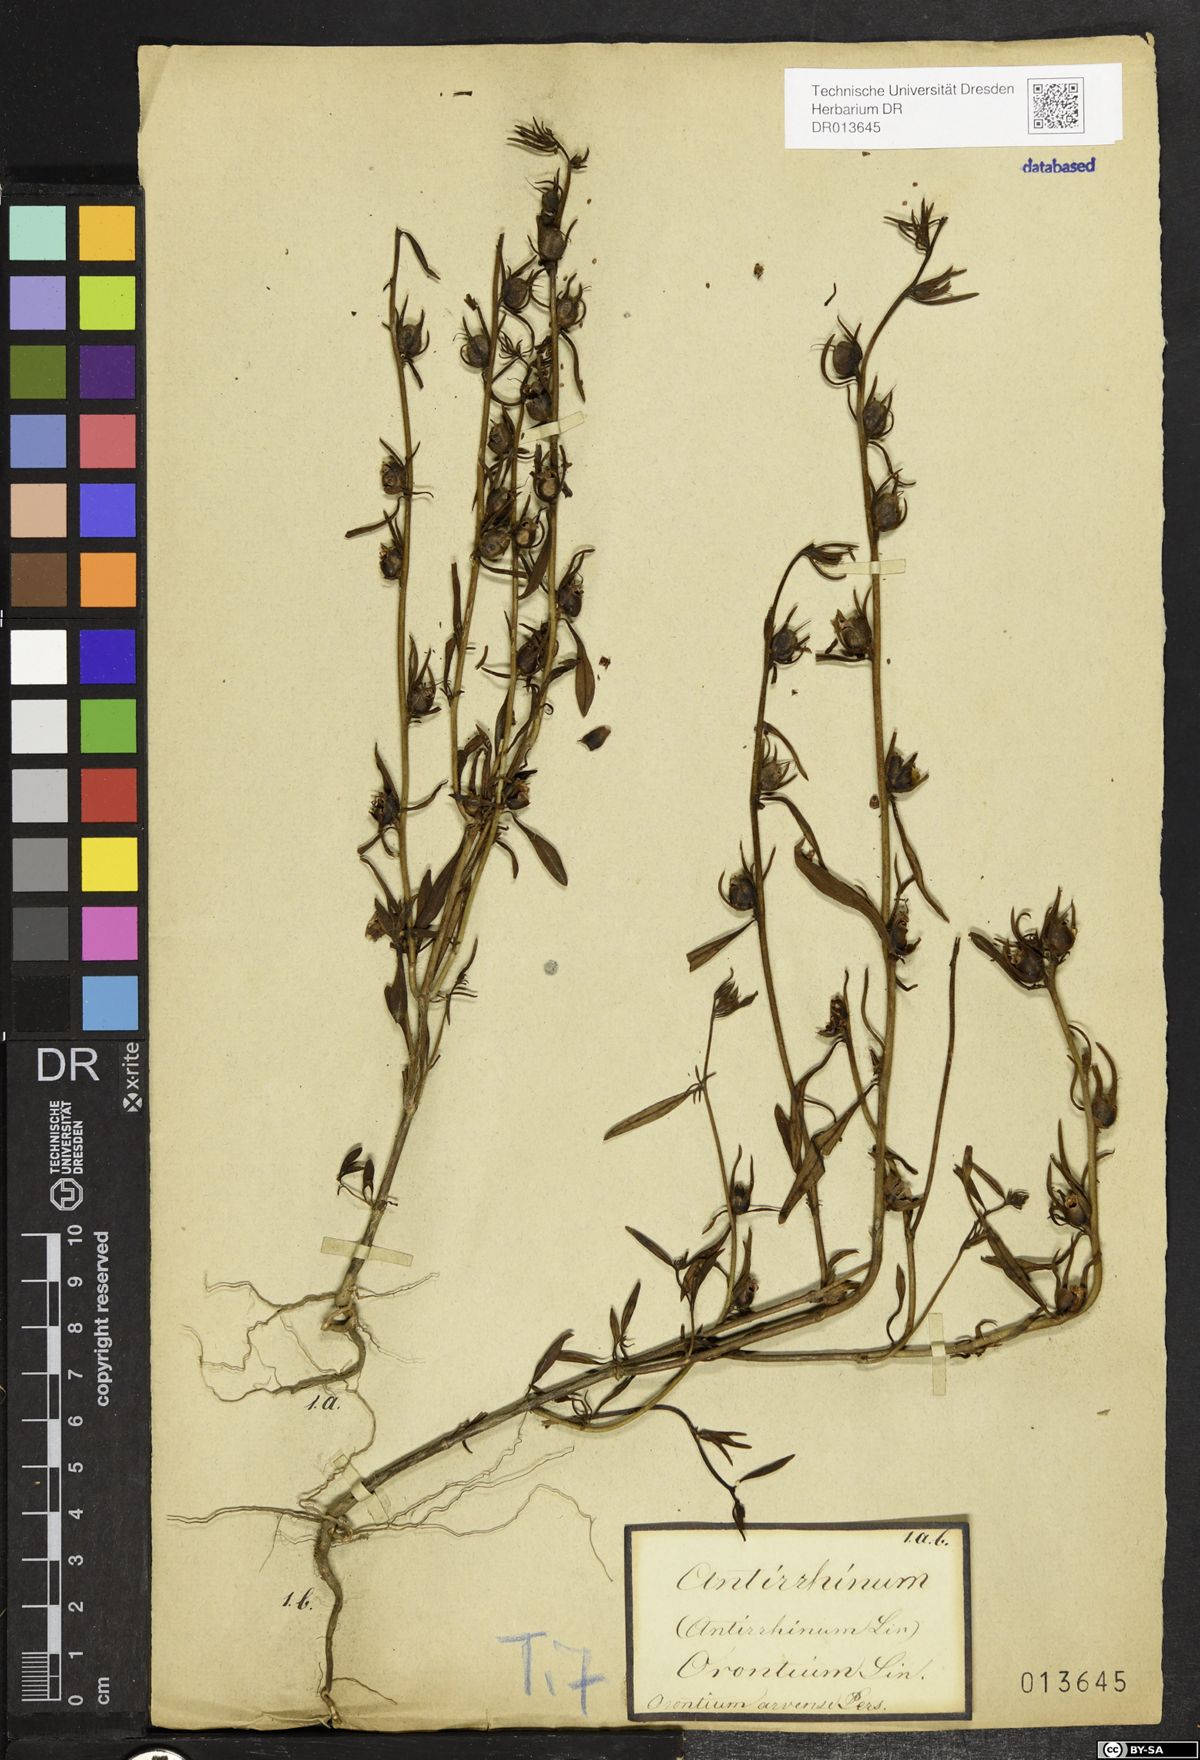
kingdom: Plantae
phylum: Tracheophyta
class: Magnoliopsida
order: Lamiales
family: Plantaginaceae
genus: Misopates
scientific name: Misopates orontium
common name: Weasel's-snout
